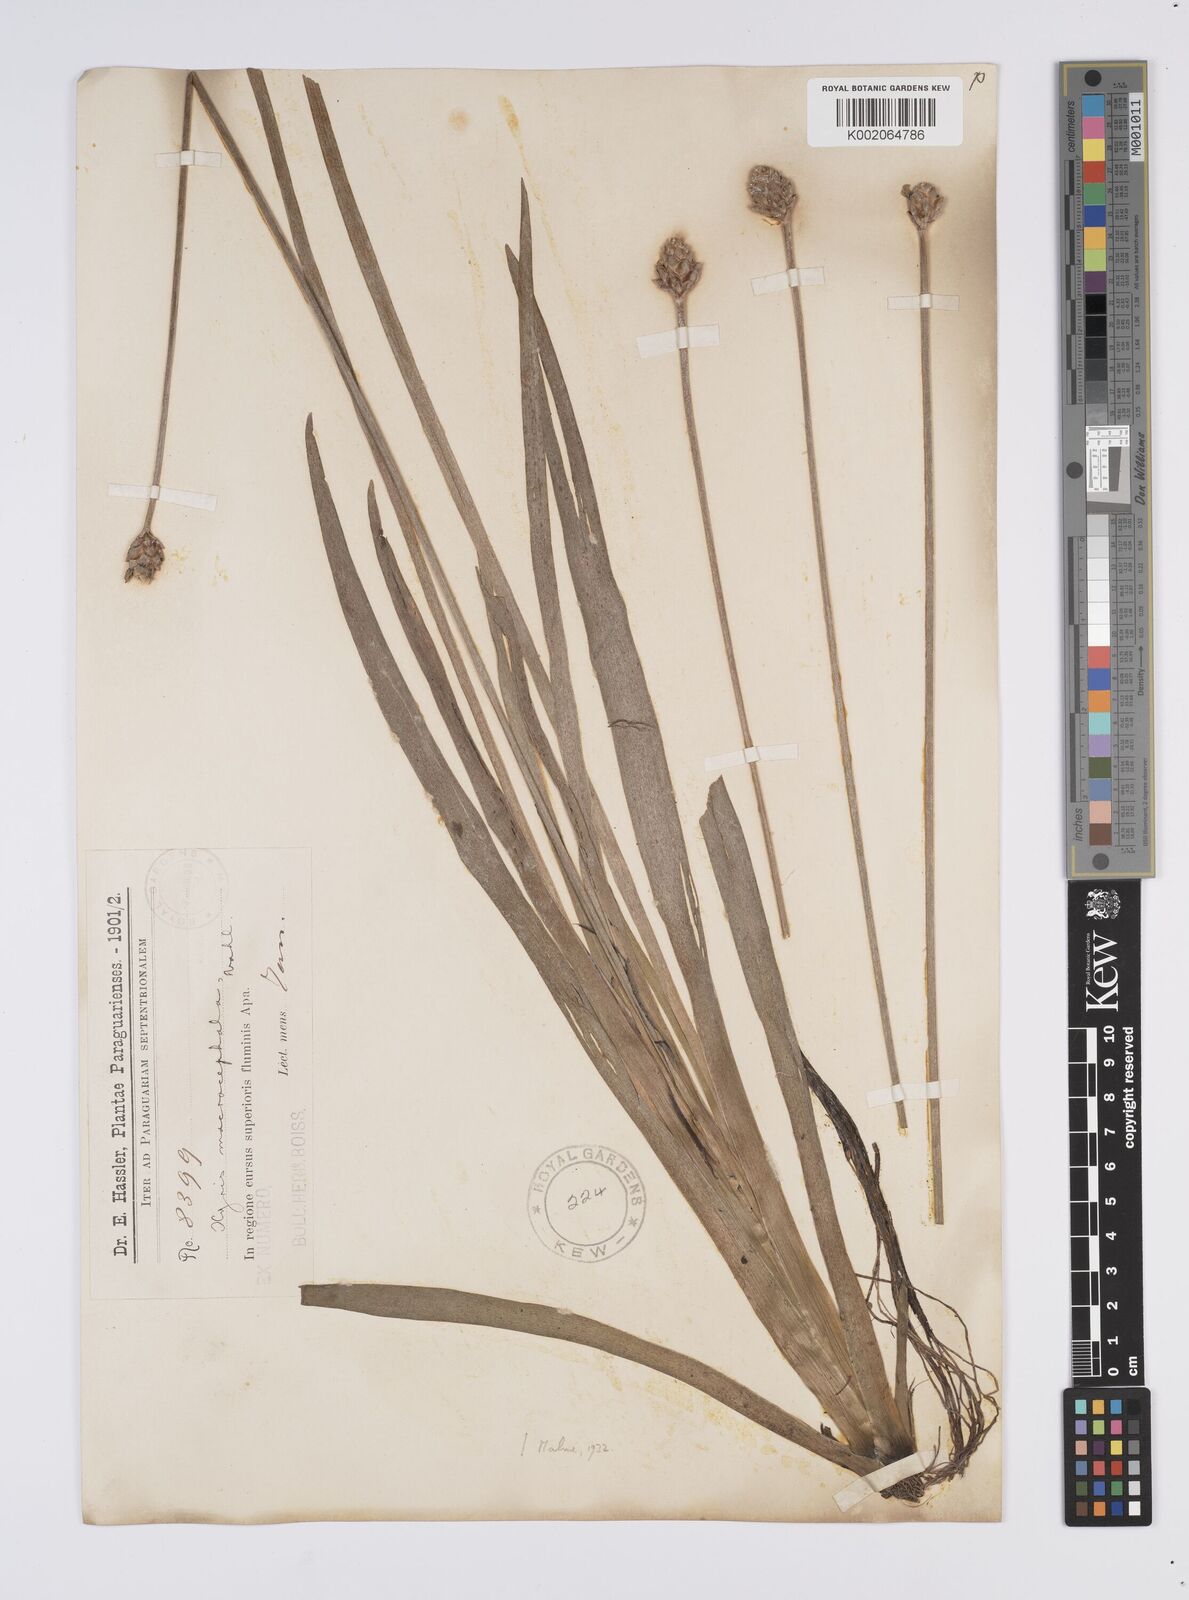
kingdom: Plantae
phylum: Tracheophyta
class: Liliopsida
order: Poales
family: Xyridaceae
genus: Xyris
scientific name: Xyris jupicai
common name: Richard's yelloweyed grass
